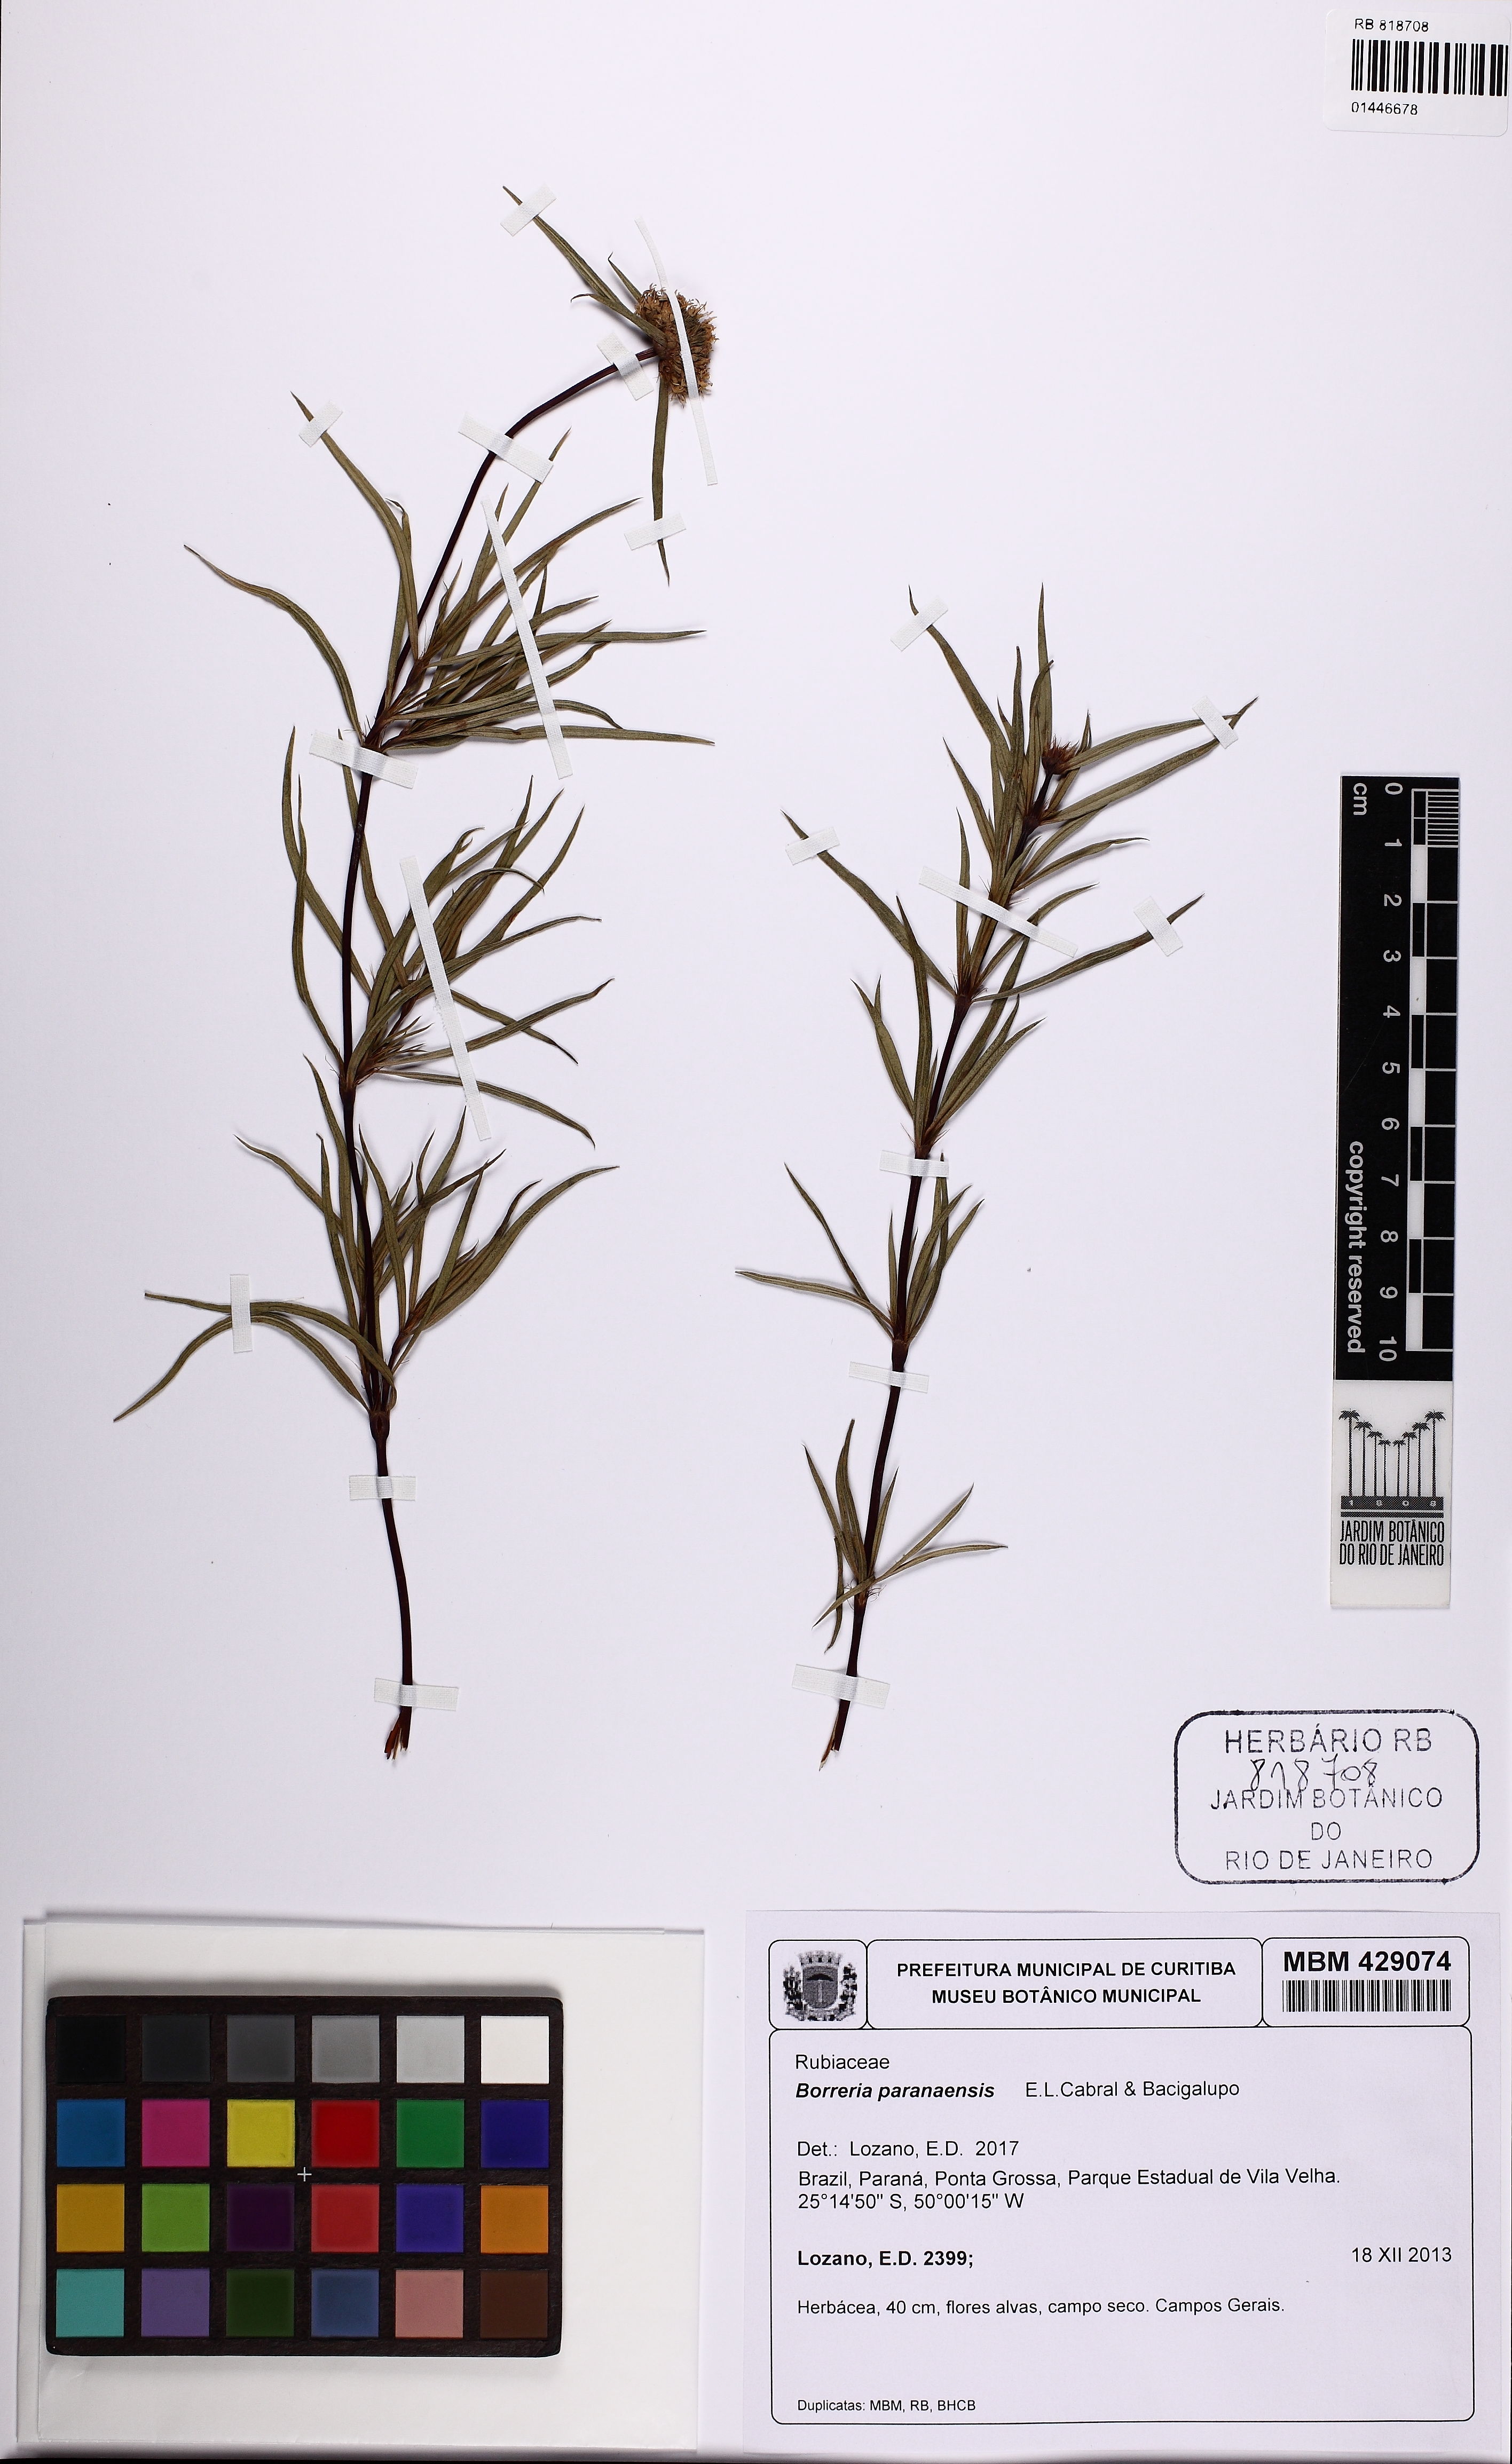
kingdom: Plantae
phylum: Tracheophyta
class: Magnoliopsida
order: Gentianales
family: Rubiaceae
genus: Spermacoce
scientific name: Spermacoce paraensis
